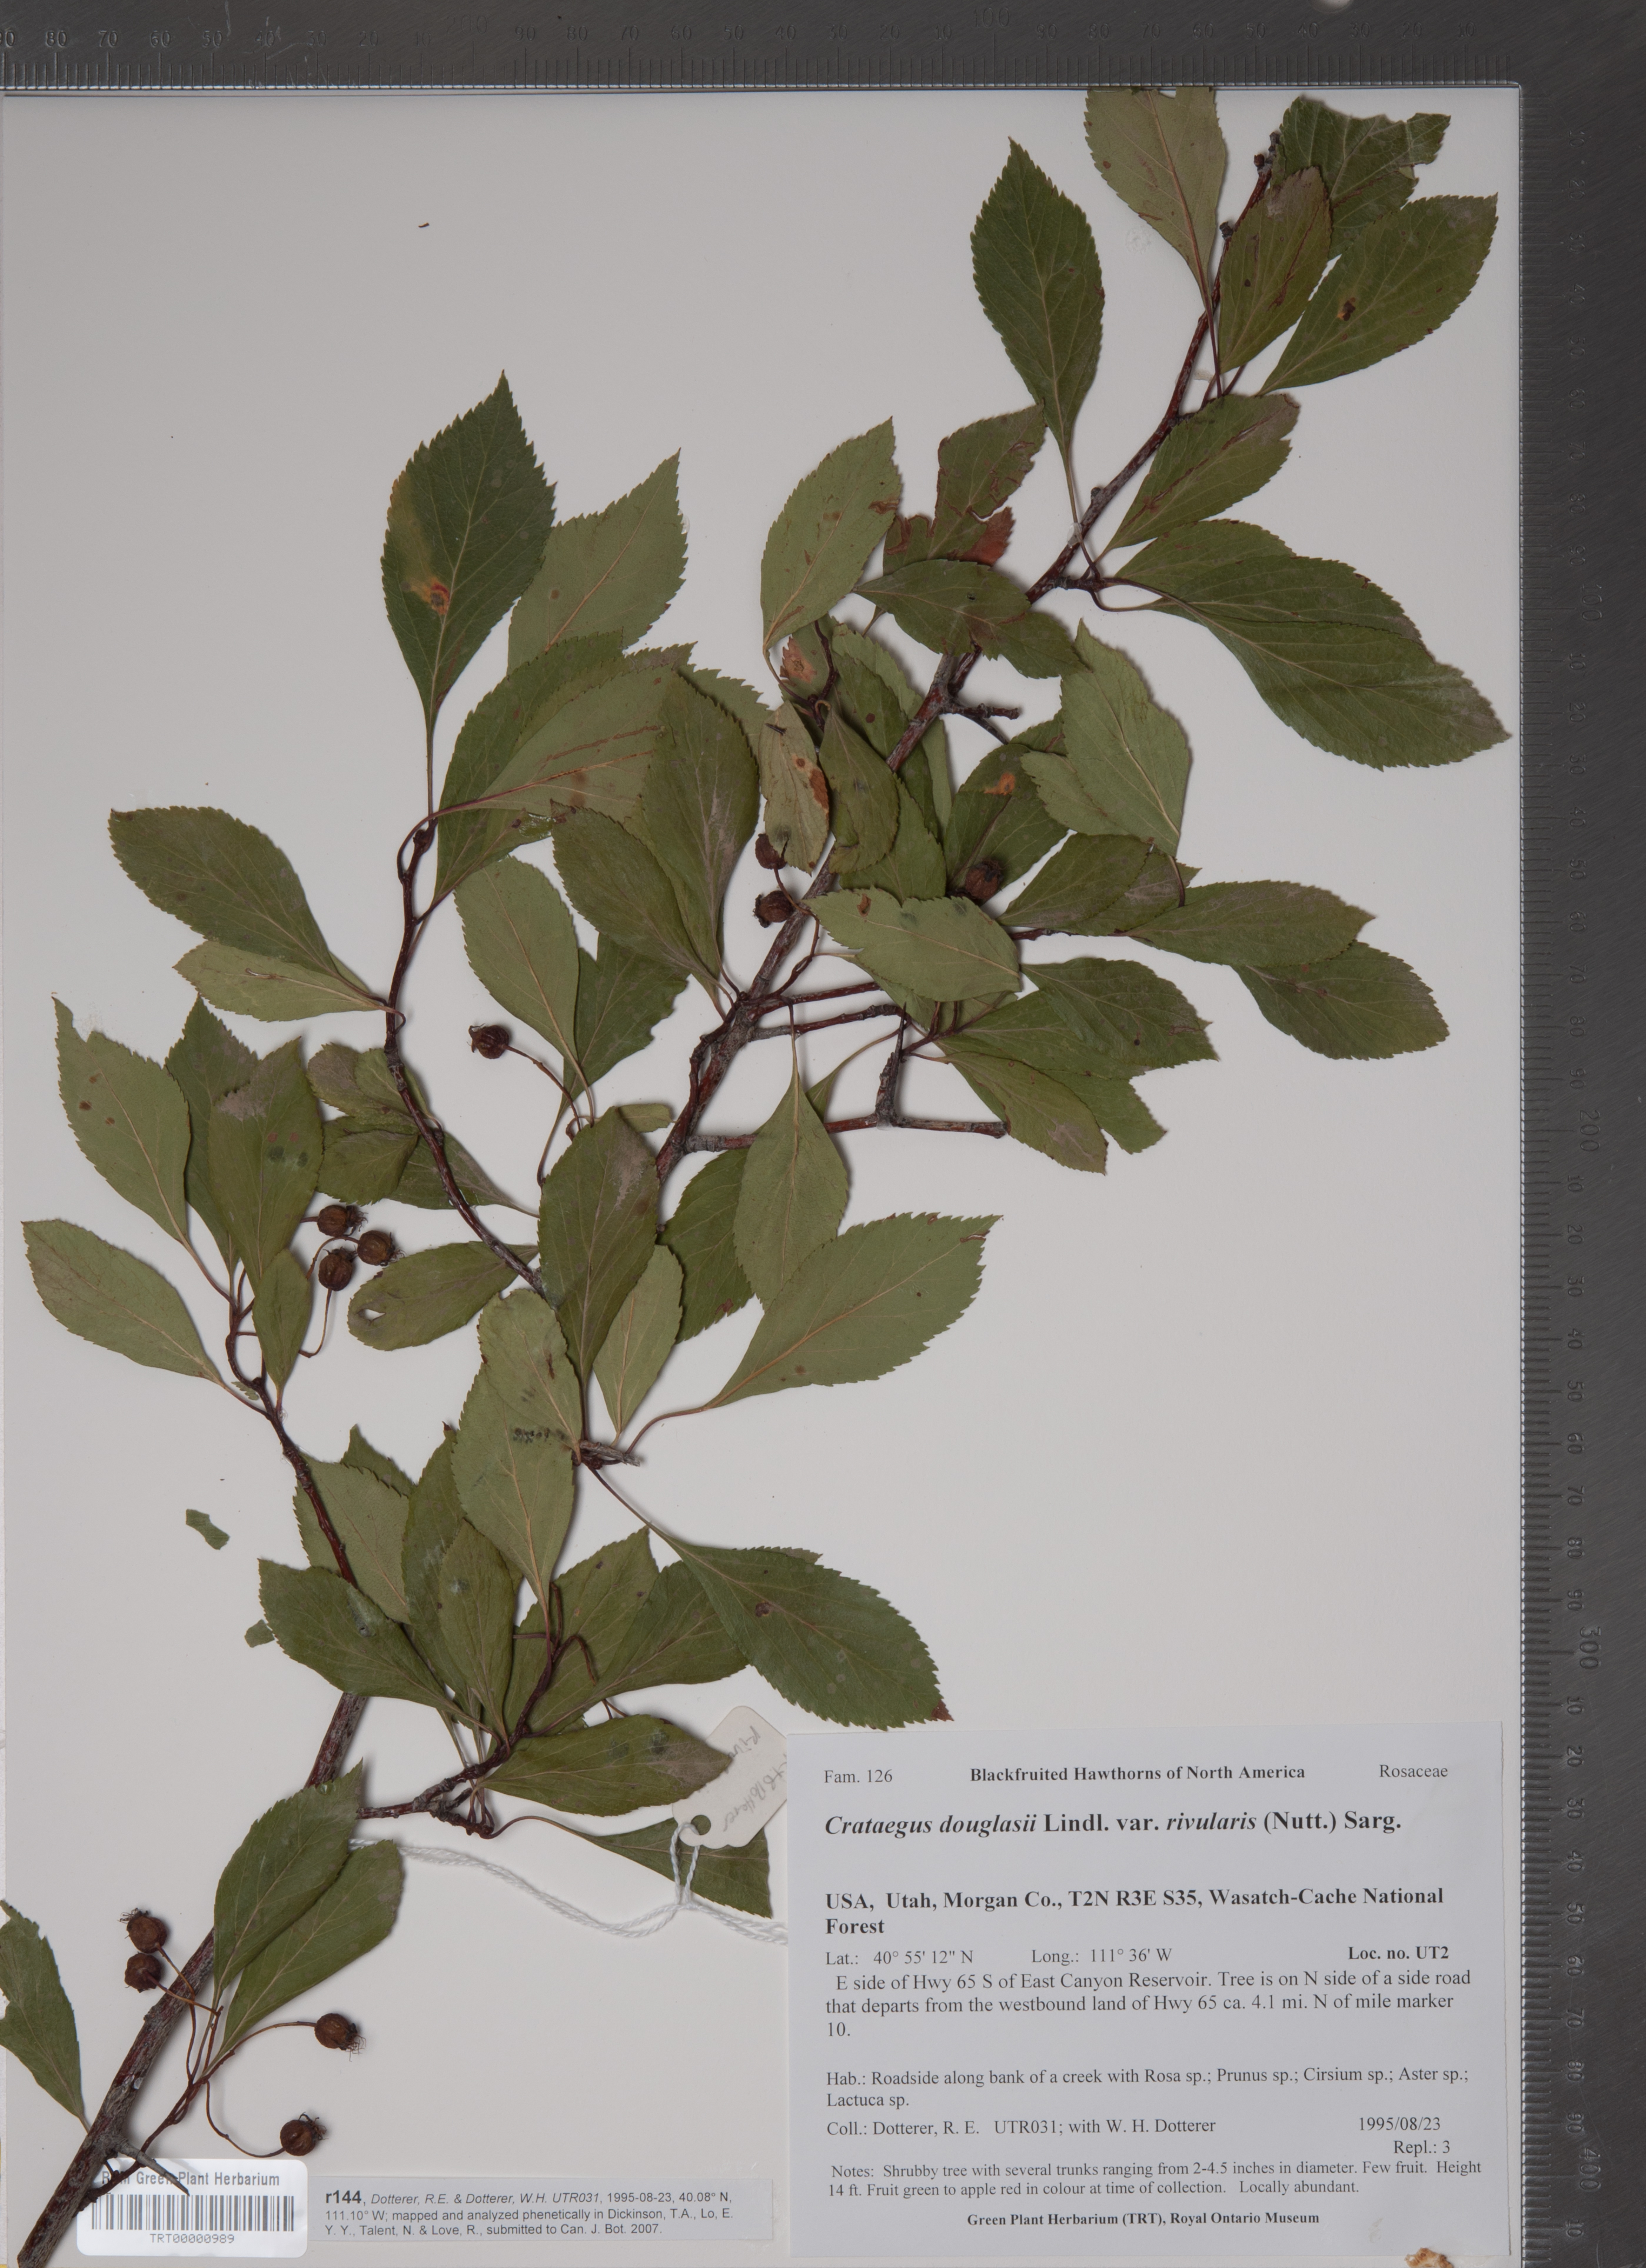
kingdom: Plantae
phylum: Tracheophyta
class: Magnoliopsida
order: Rosales
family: Rosaceae
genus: Crataegus
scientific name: Crataegus rivularis
